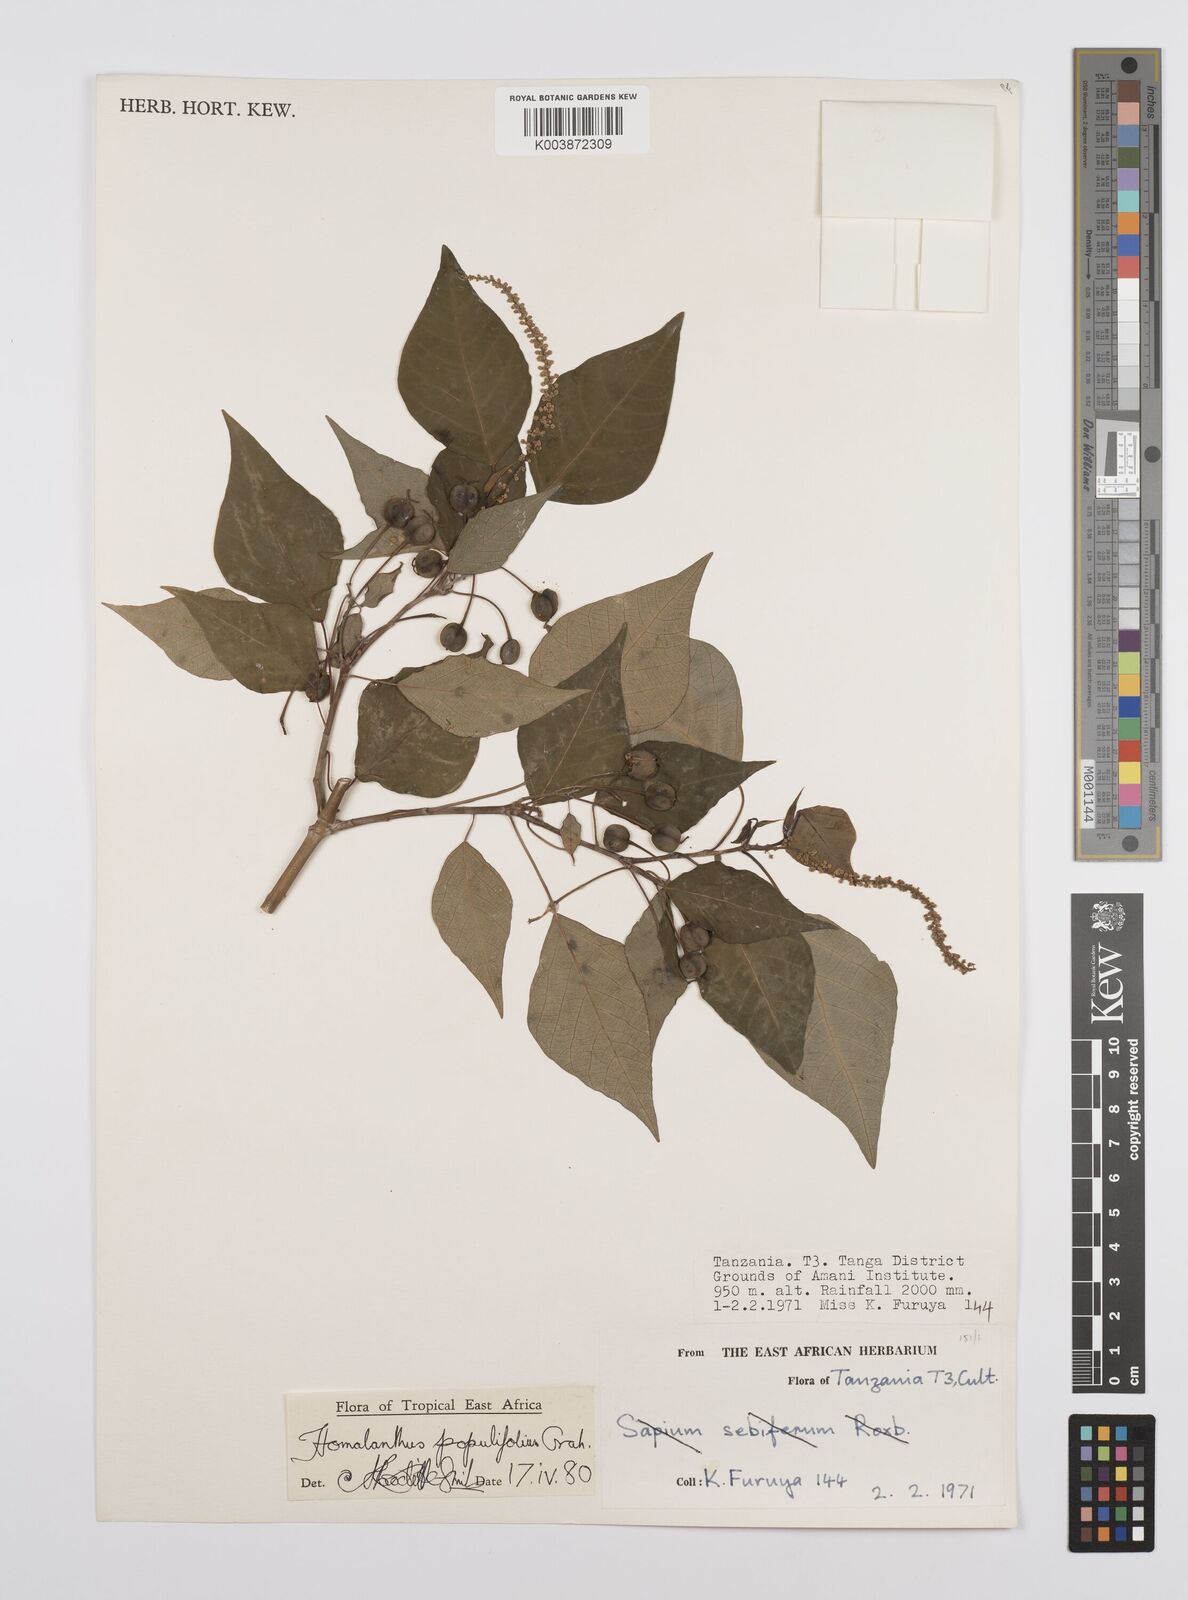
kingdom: Plantae
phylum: Tracheophyta
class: Magnoliopsida
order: Malpighiales
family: Euphorbiaceae
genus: Homalanthus
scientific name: Homalanthus populifolius
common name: Queensland poplar
